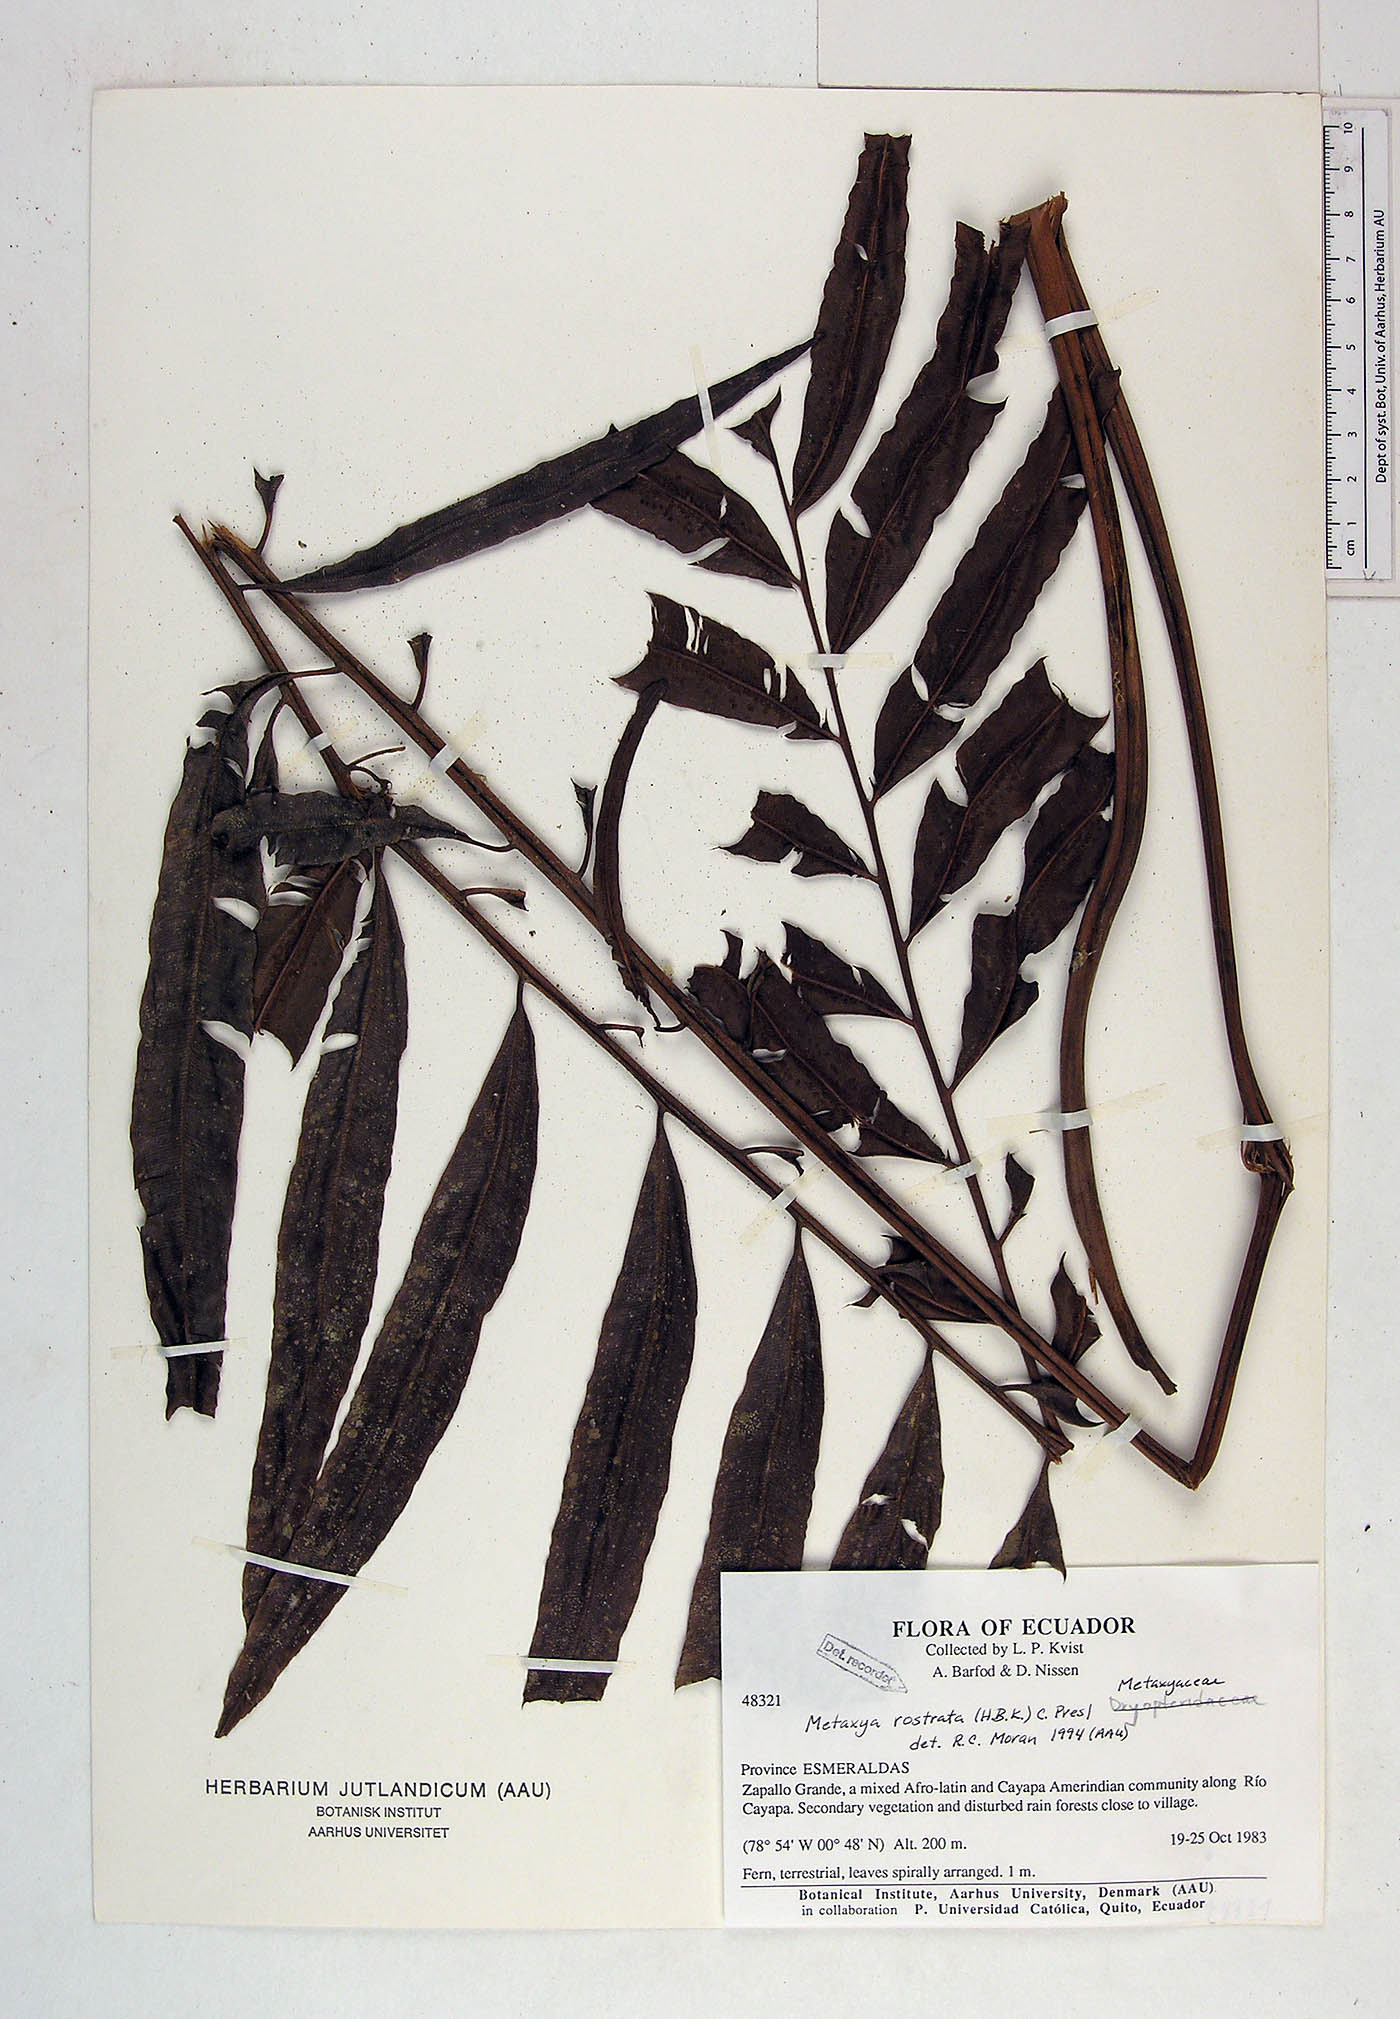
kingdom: Plantae
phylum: Tracheophyta
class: Polypodiopsida
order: Cyatheales
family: Metaxyaceae
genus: Metaxya
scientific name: Metaxya
